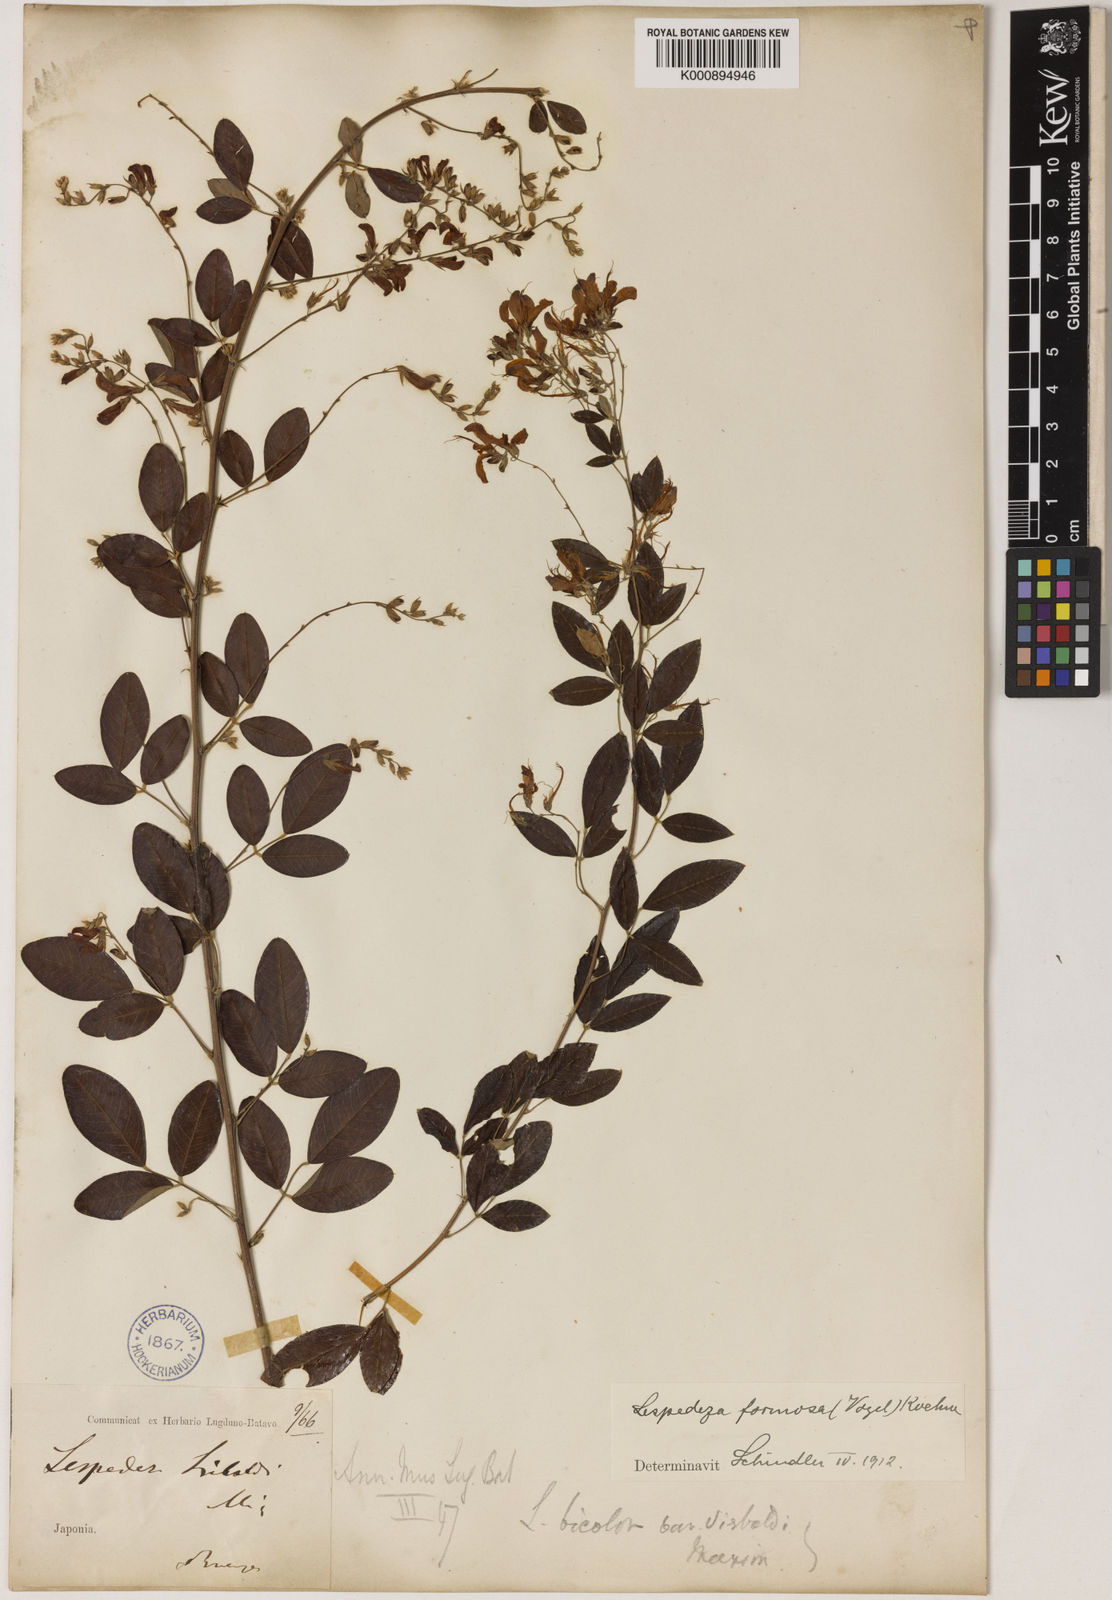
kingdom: Plantae
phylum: Tracheophyta
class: Magnoliopsida
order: Fabales
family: Fabaceae
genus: Lespedeza
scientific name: Lespedeza thunbergii
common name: Thunberg's lespedeza
